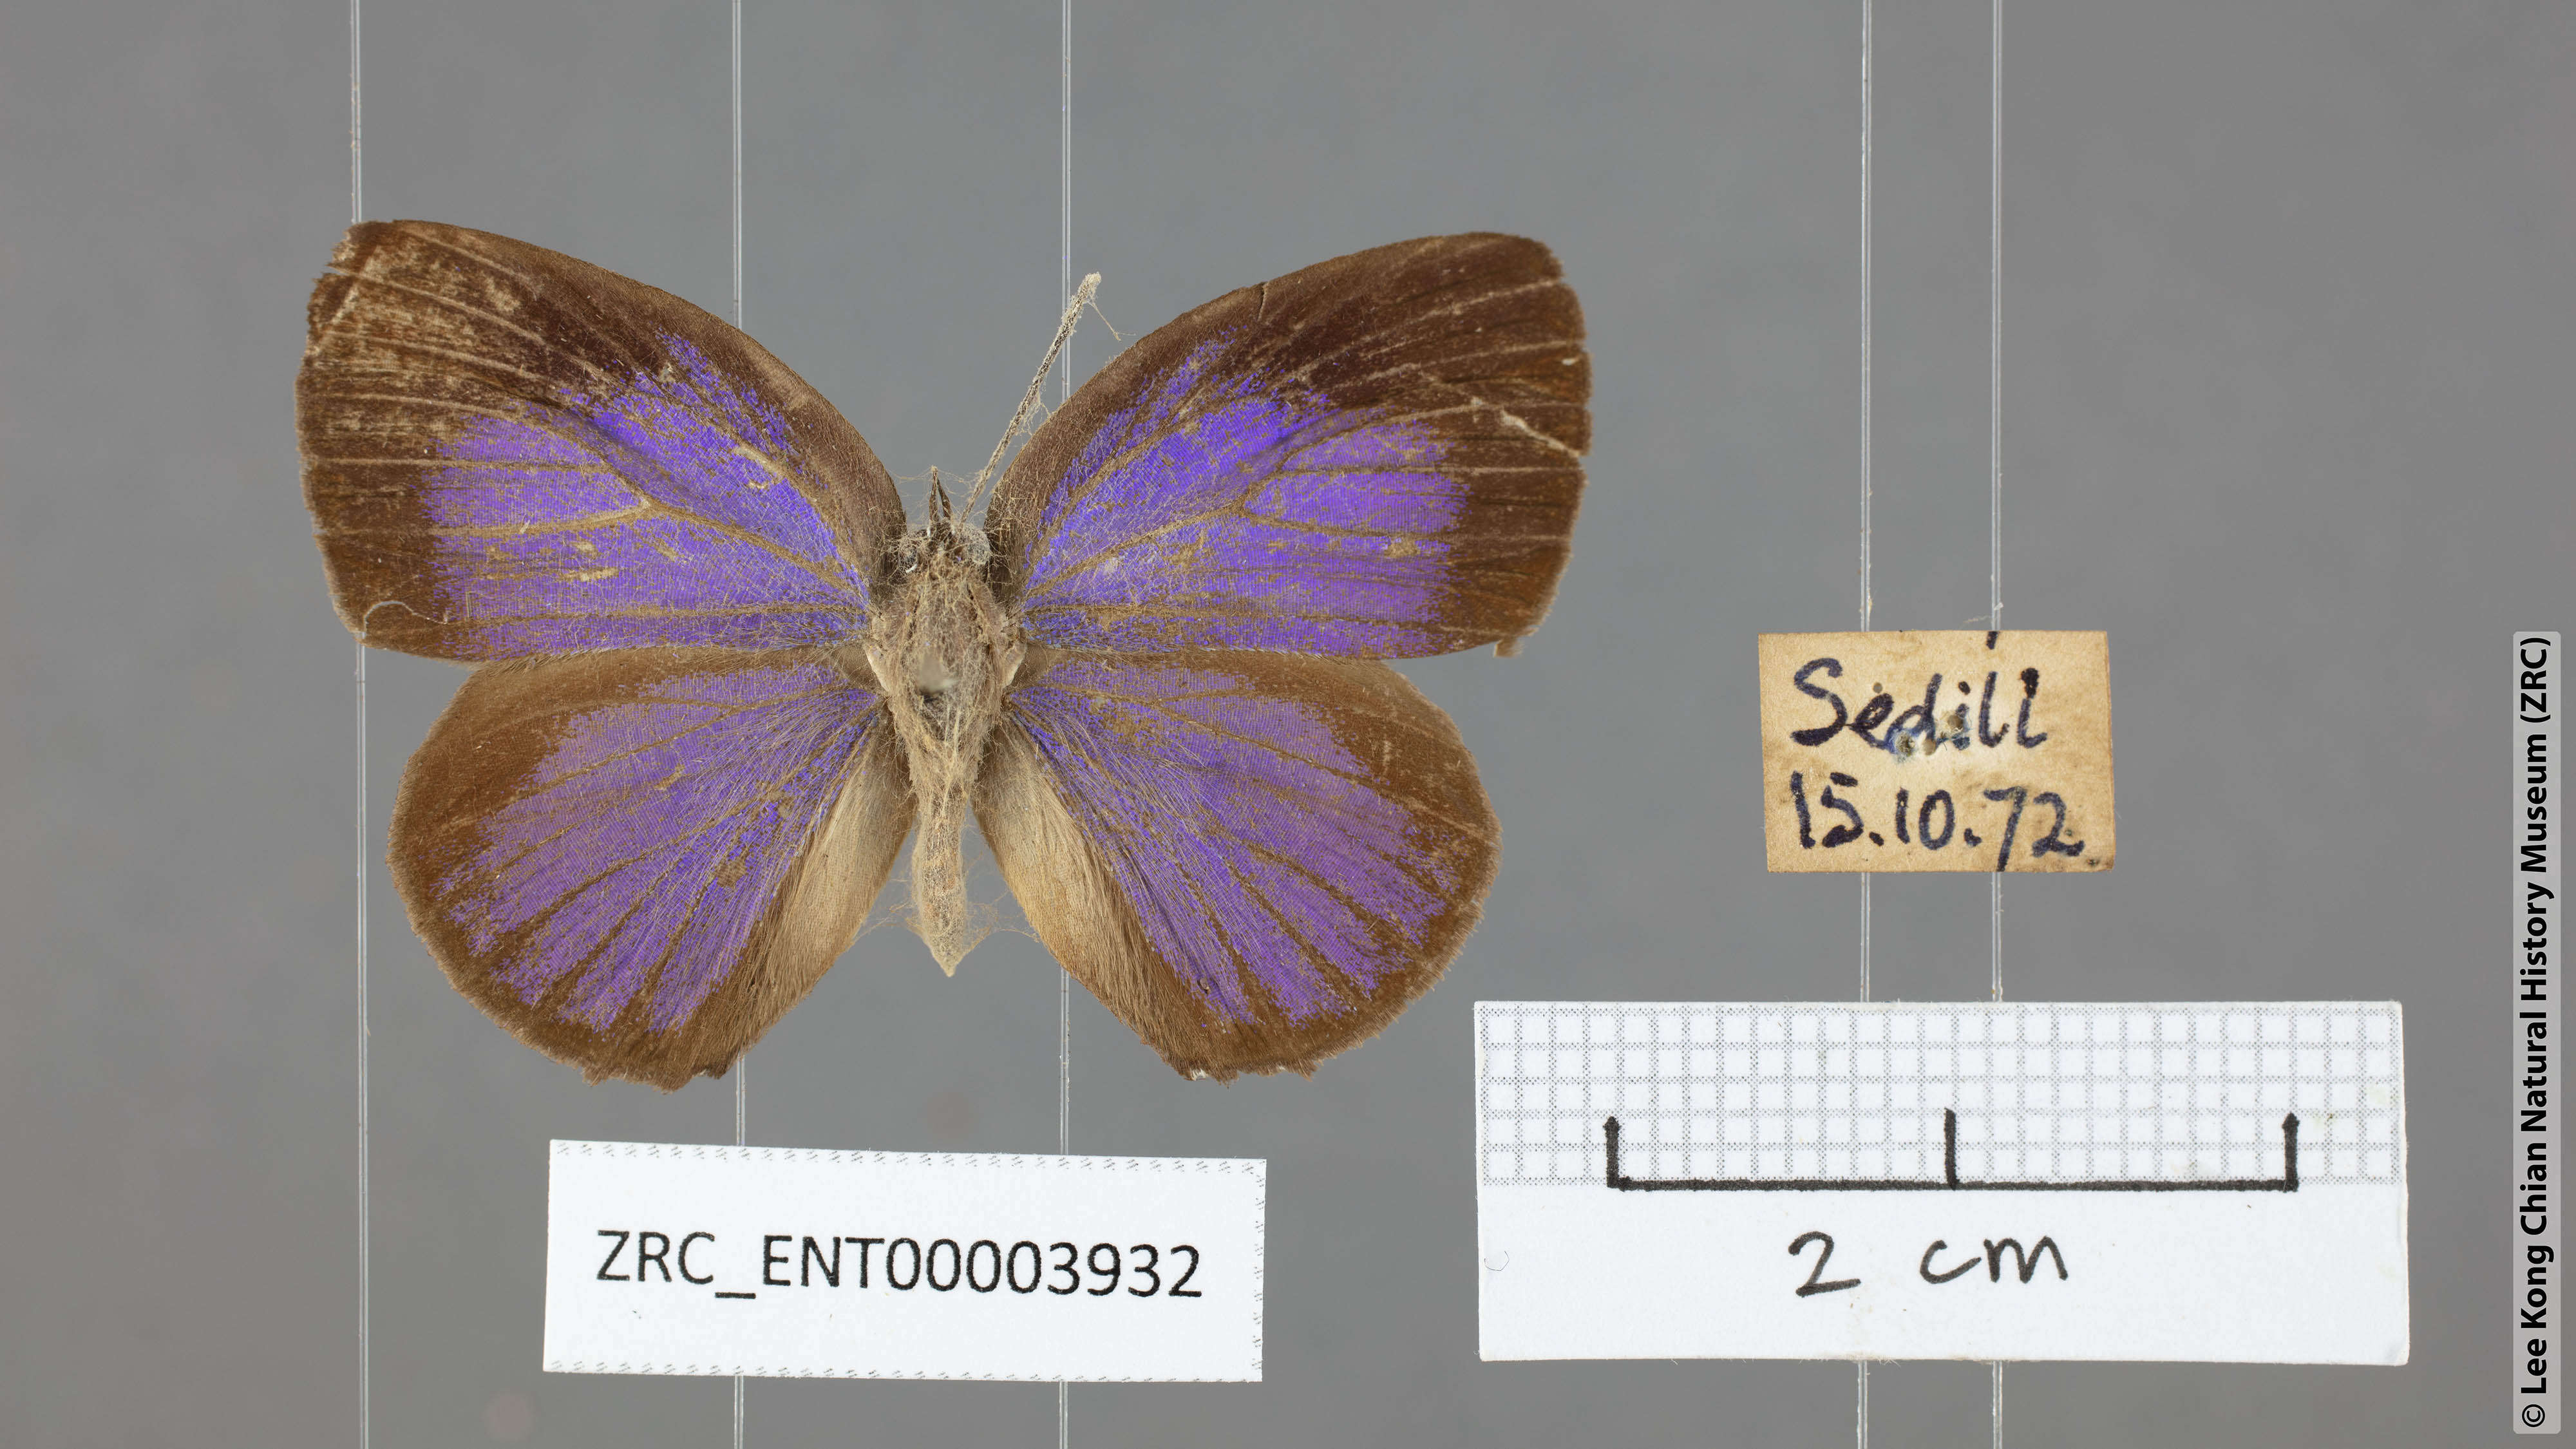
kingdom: Animalia
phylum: Arthropoda
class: Insecta
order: Lepidoptera
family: Lycaenidae
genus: Arhopala
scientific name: Arhopala epimuta
